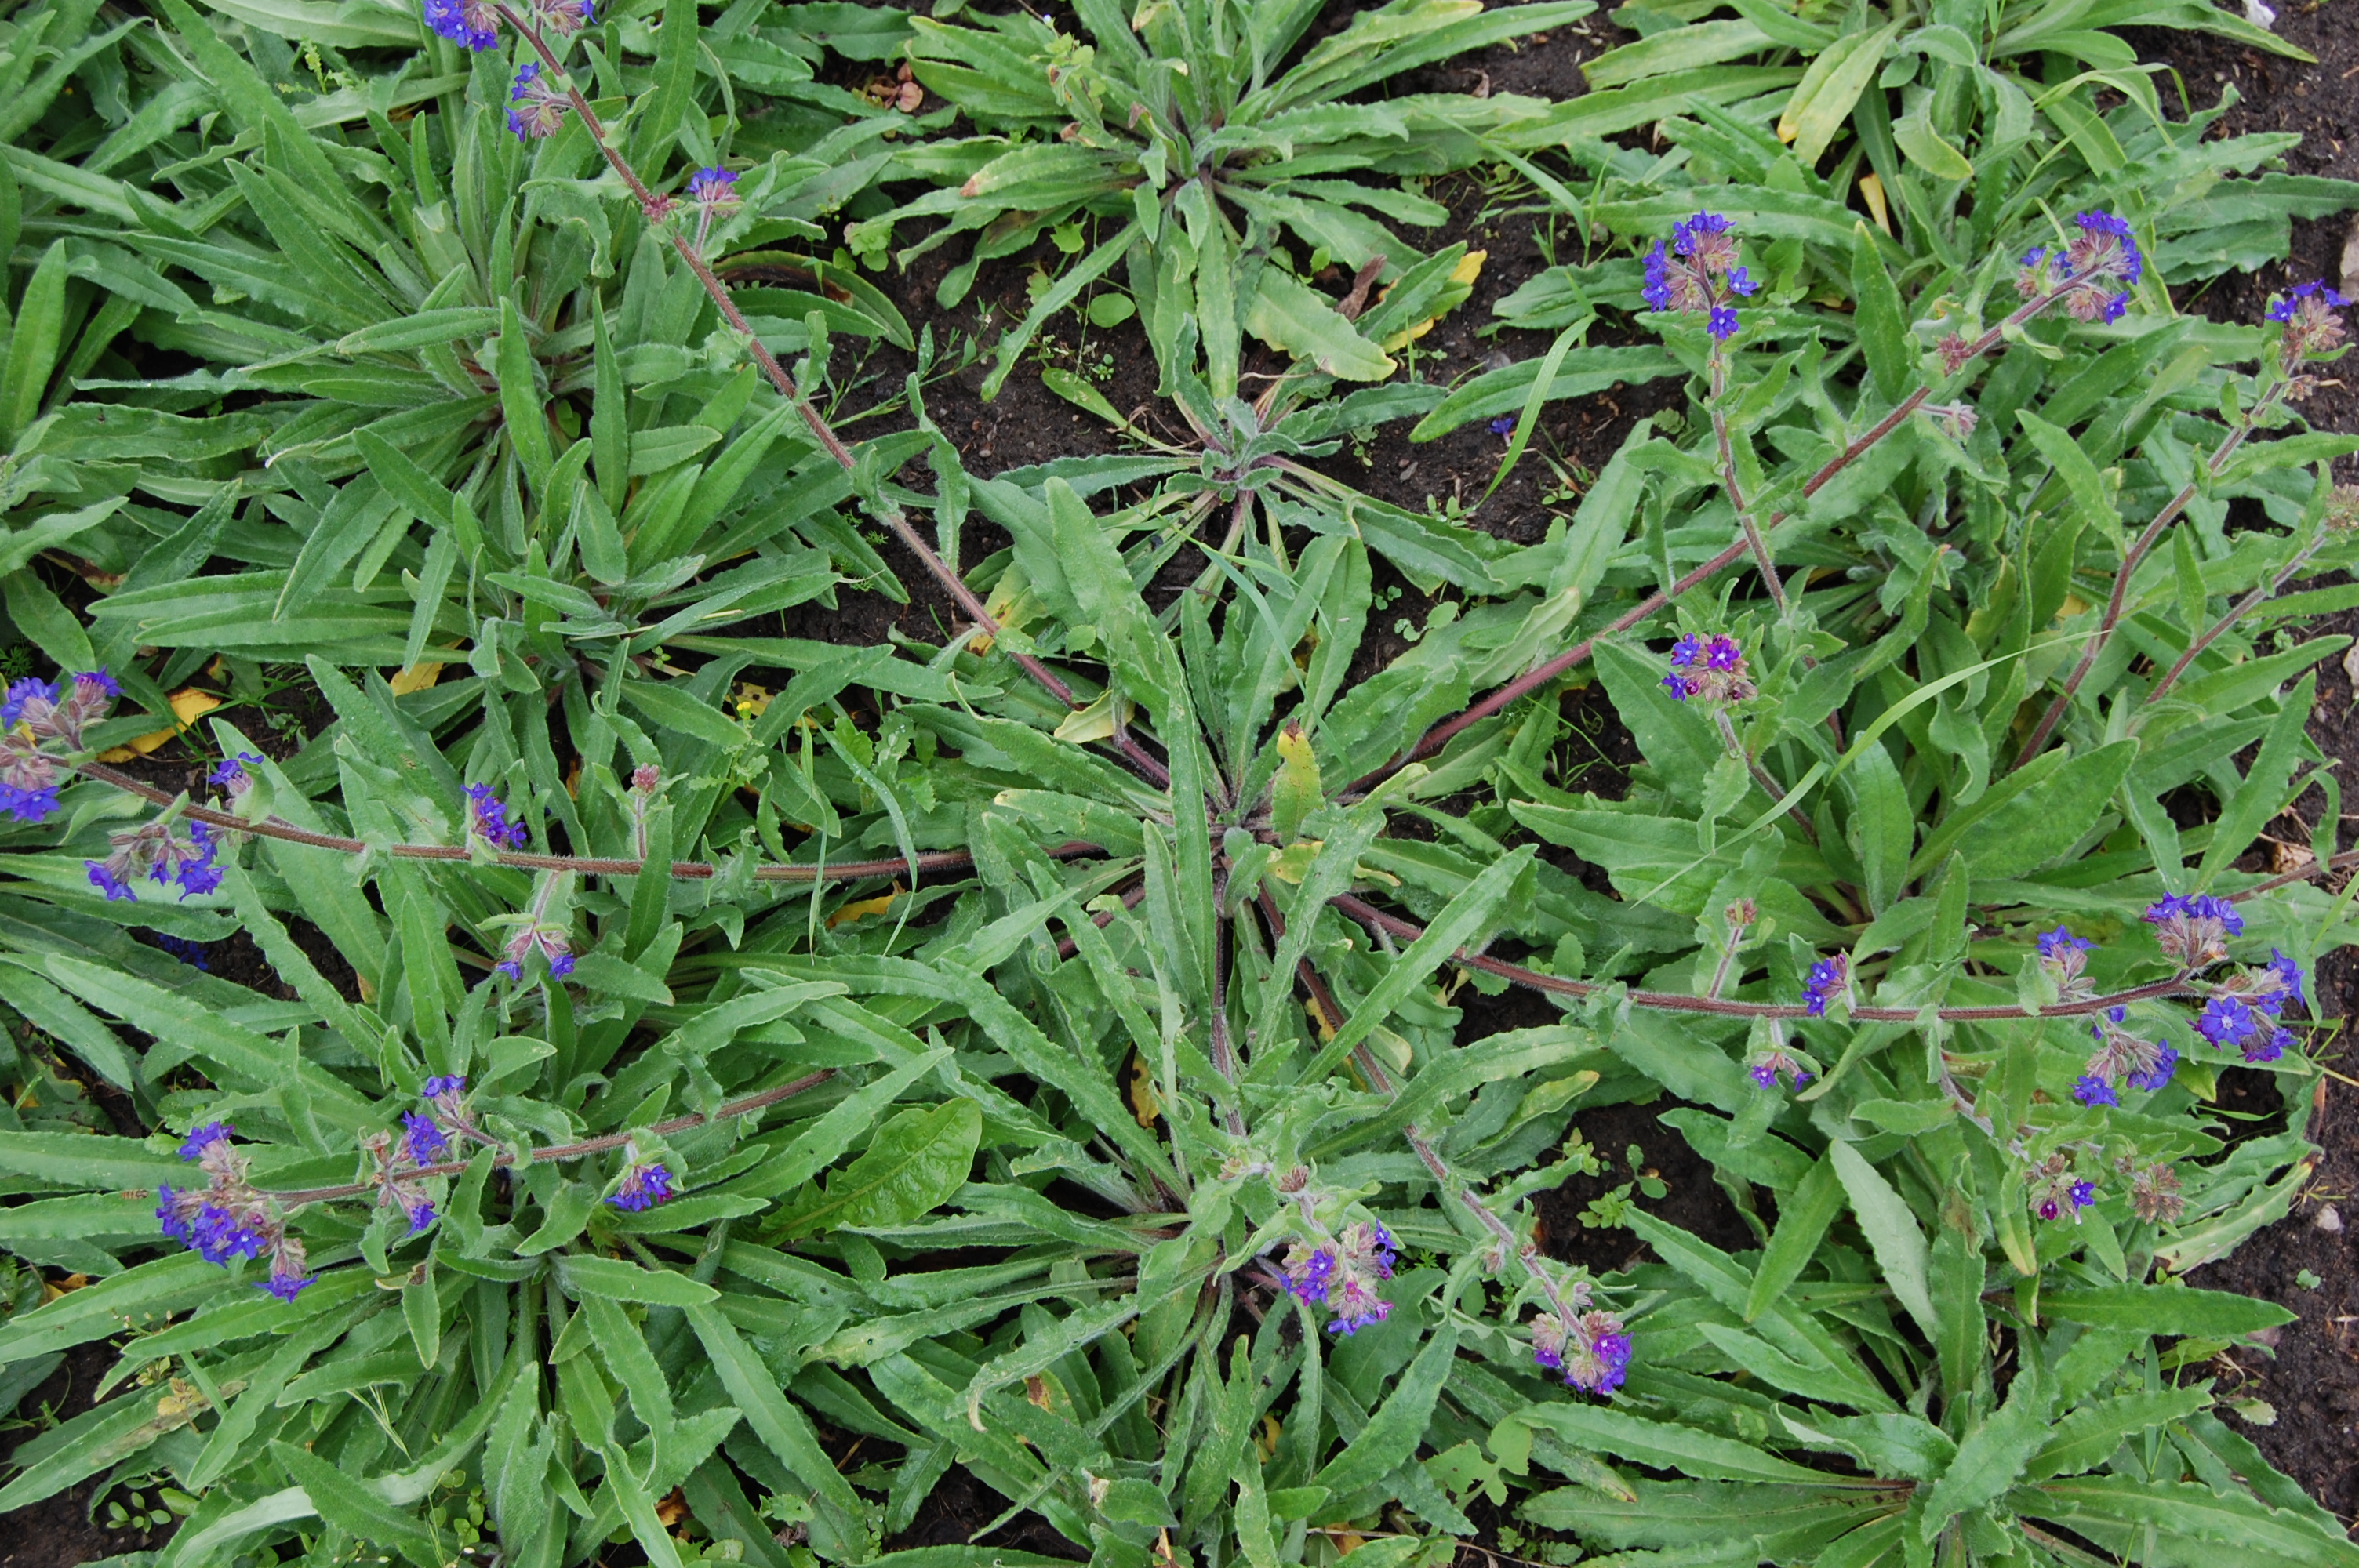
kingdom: Plantae
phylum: Tracheophyta
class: Magnoliopsida
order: Boraginales
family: Boraginaceae
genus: Anchusa
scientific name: Anchusa officinalis
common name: Alkanet
